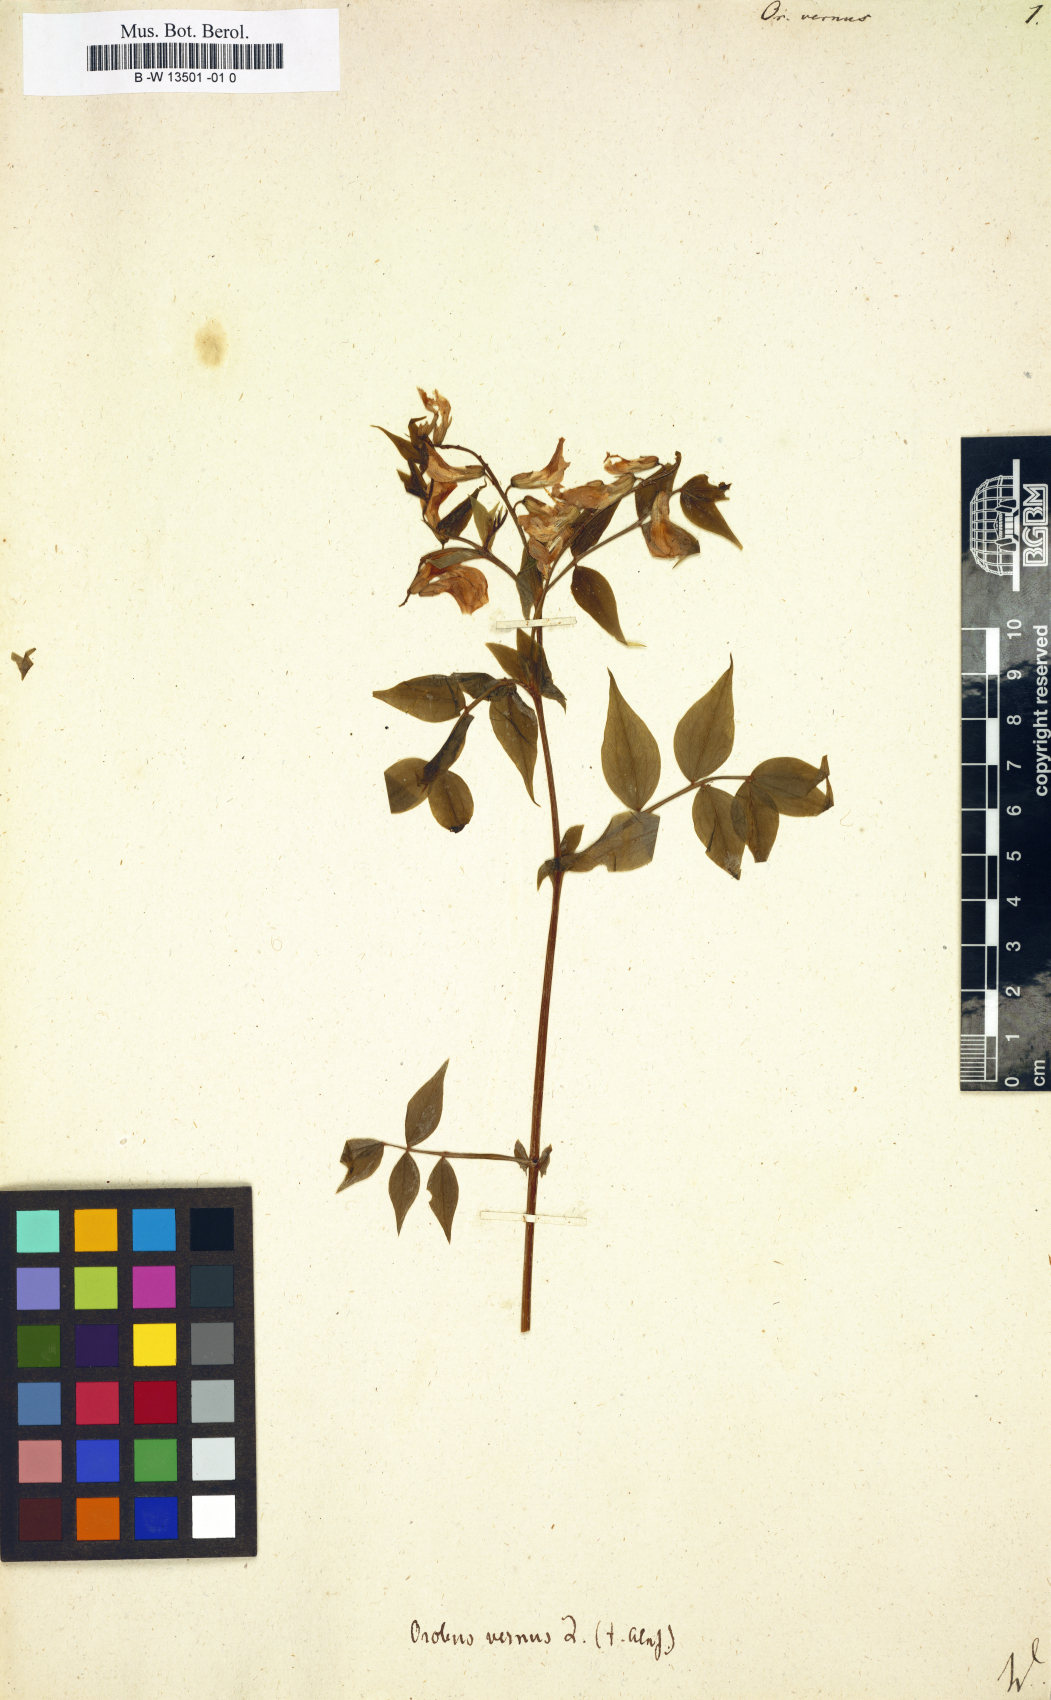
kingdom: Plantae
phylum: Tracheophyta
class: Magnoliopsida
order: Fabales
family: Fabaceae
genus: Lathyrus
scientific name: Lathyrus vernus
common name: Spring pea
